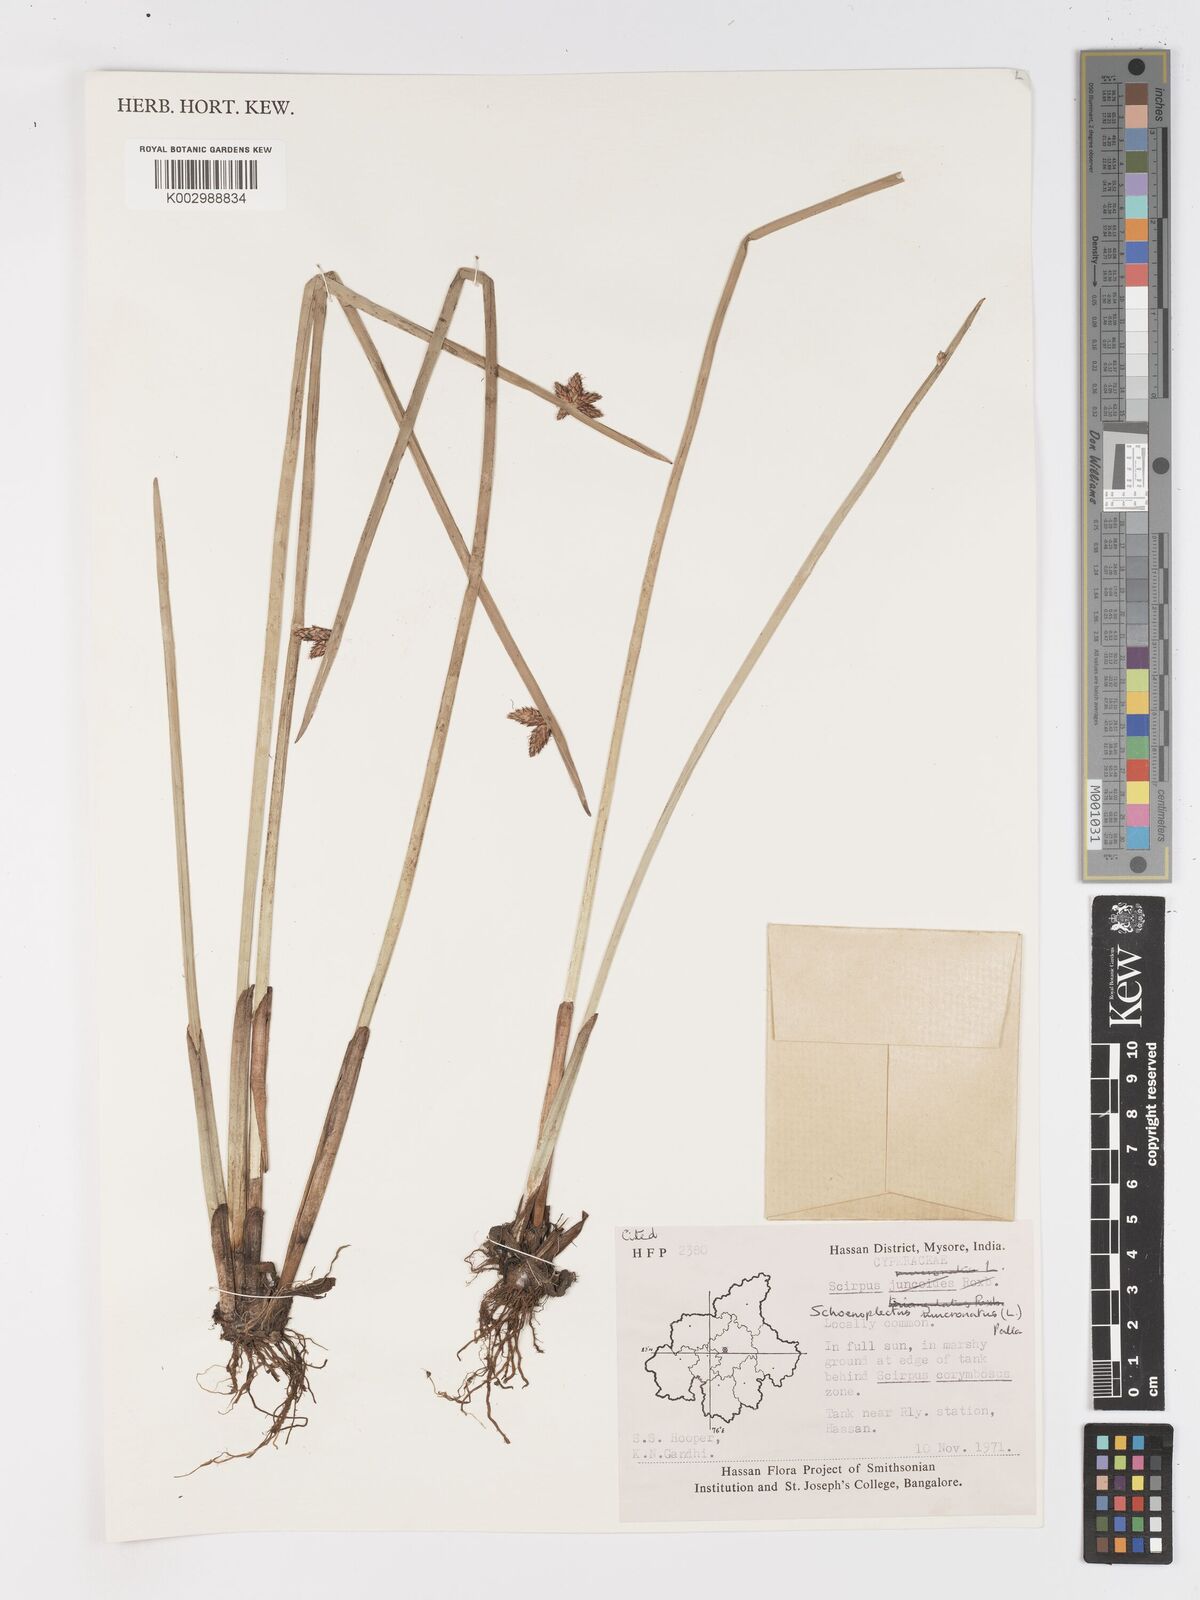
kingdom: Plantae
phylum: Tracheophyta
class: Liliopsida
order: Poales
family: Cyperaceae
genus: Schoenoplectiella
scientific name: Schoenoplectiella mucronata
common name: Bog bulrush
